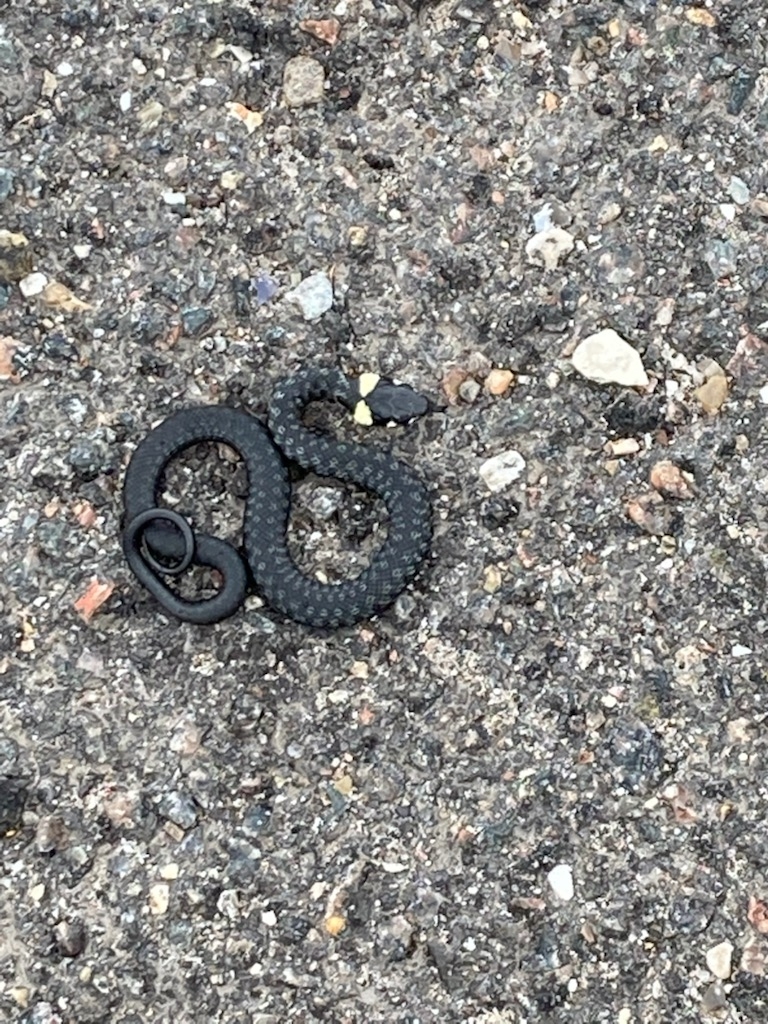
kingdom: Animalia
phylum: Chordata
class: Squamata
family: Colubridae
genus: Natrix
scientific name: Natrix natrix
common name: Snog
